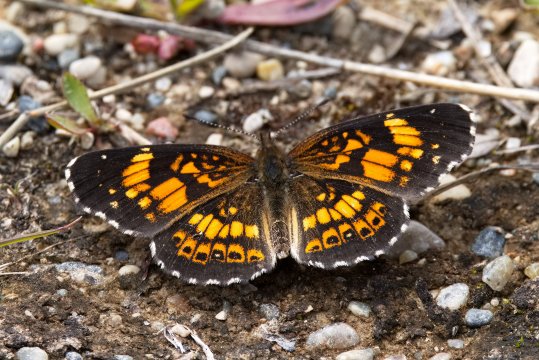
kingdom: Animalia
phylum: Arthropoda
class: Insecta
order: Lepidoptera
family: Nymphalidae
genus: Chlosyne
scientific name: Chlosyne nycteis
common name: Silvery Checkerspot
